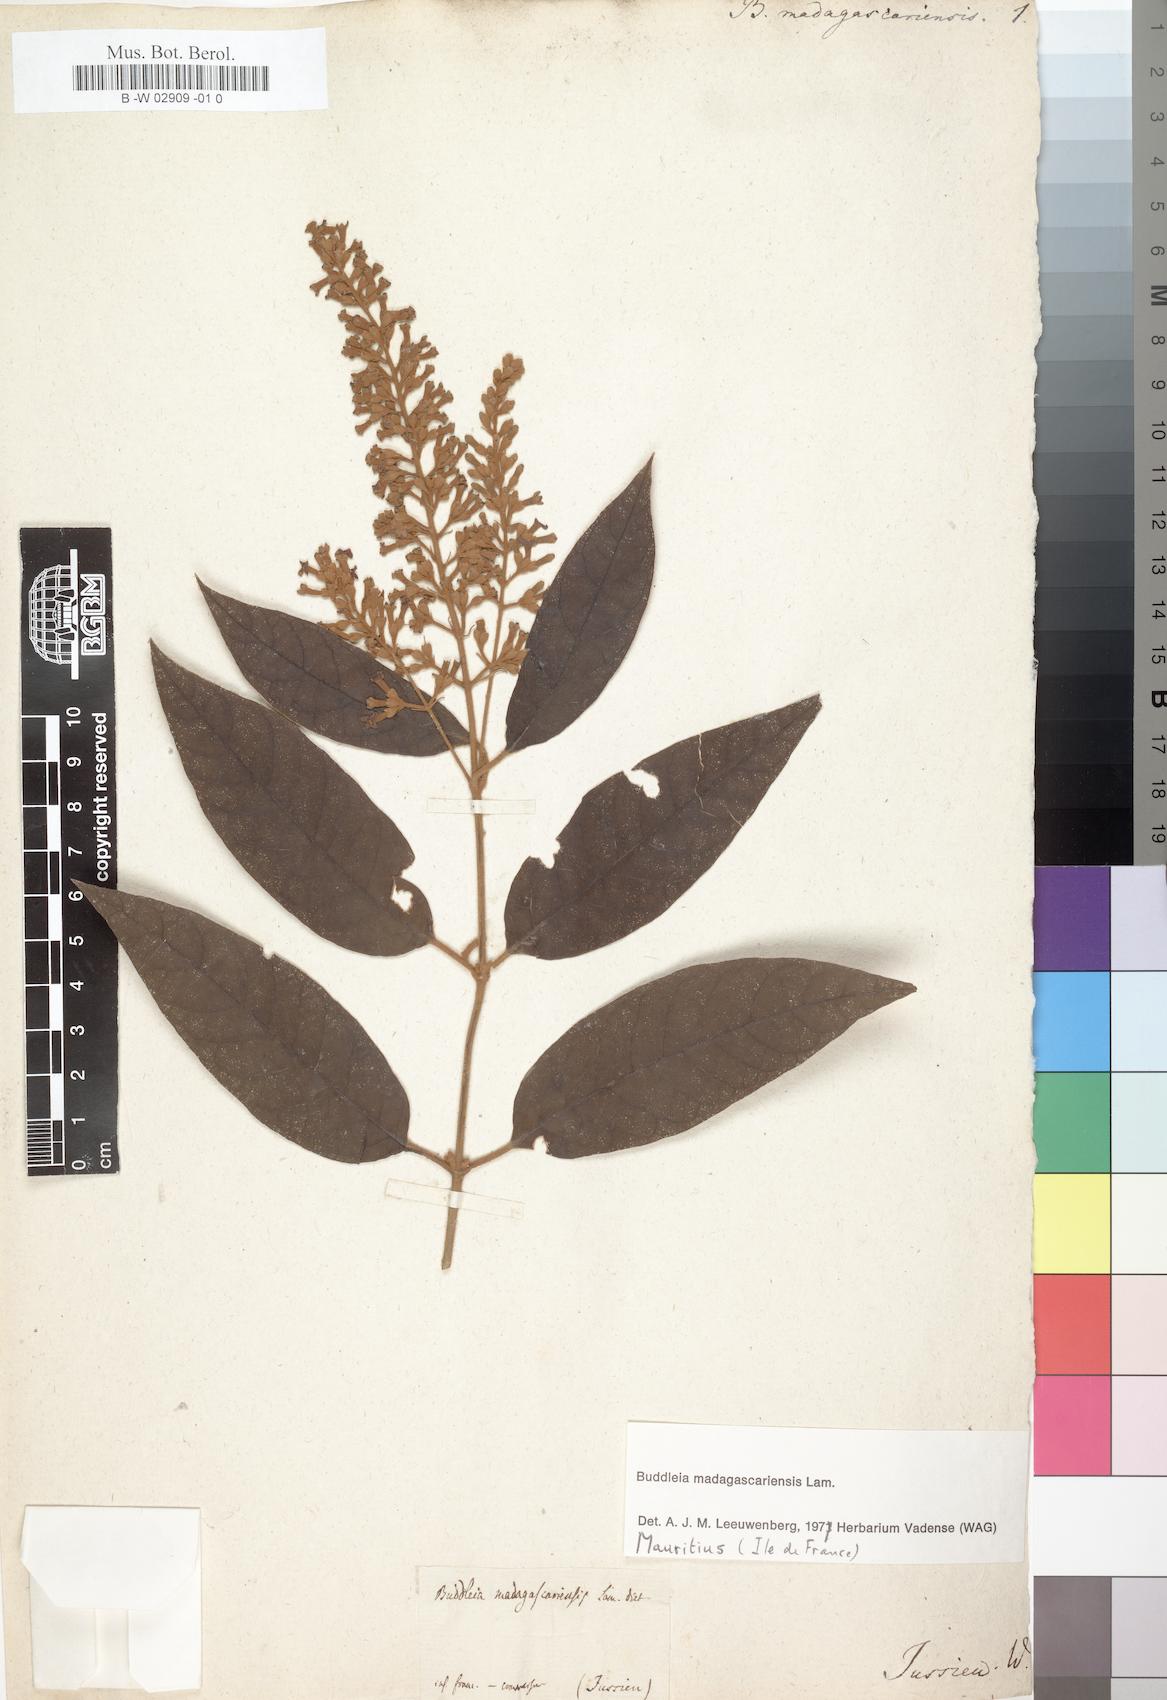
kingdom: Plantae
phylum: Tracheophyta
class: Magnoliopsida
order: Lamiales
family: Scrophulariaceae
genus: Buddleja
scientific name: Buddleja madagascariensis
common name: Smokebush
